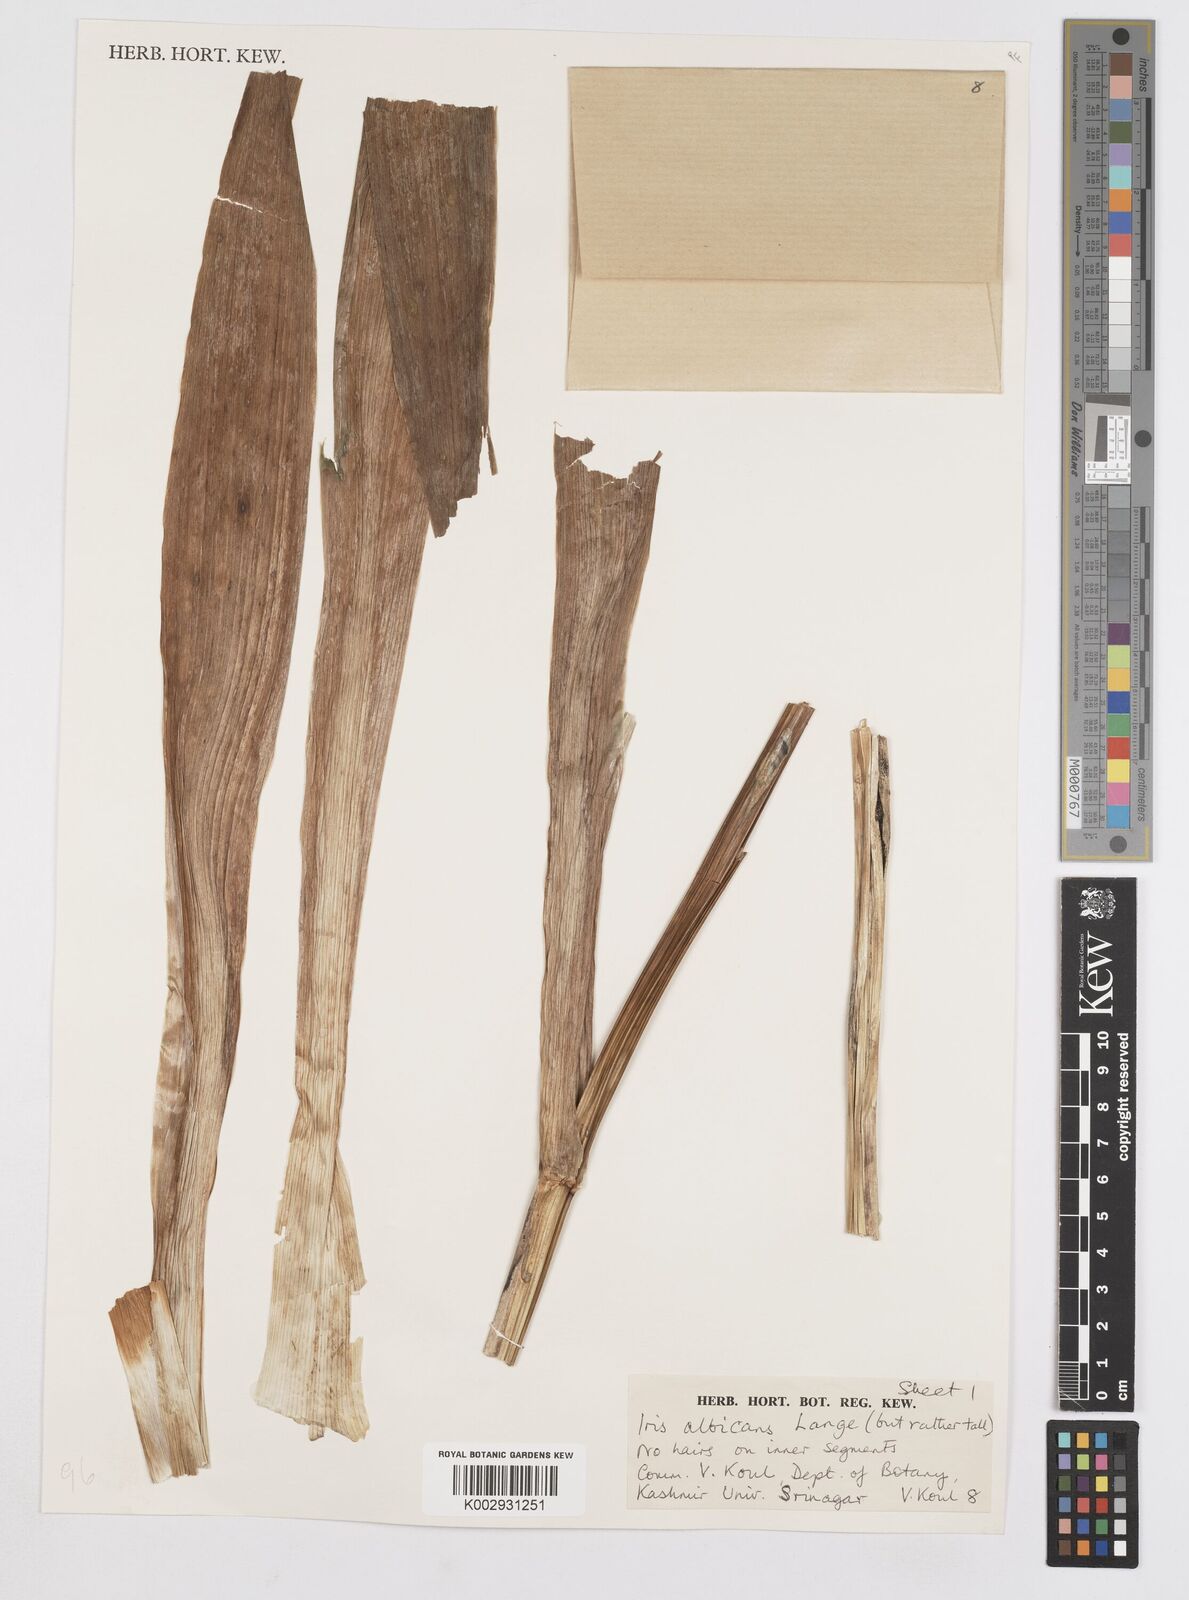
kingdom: Plantae
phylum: Tracheophyta
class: Liliopsida
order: Asparagales
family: Iridaceae
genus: Iris
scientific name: Iris florentina
